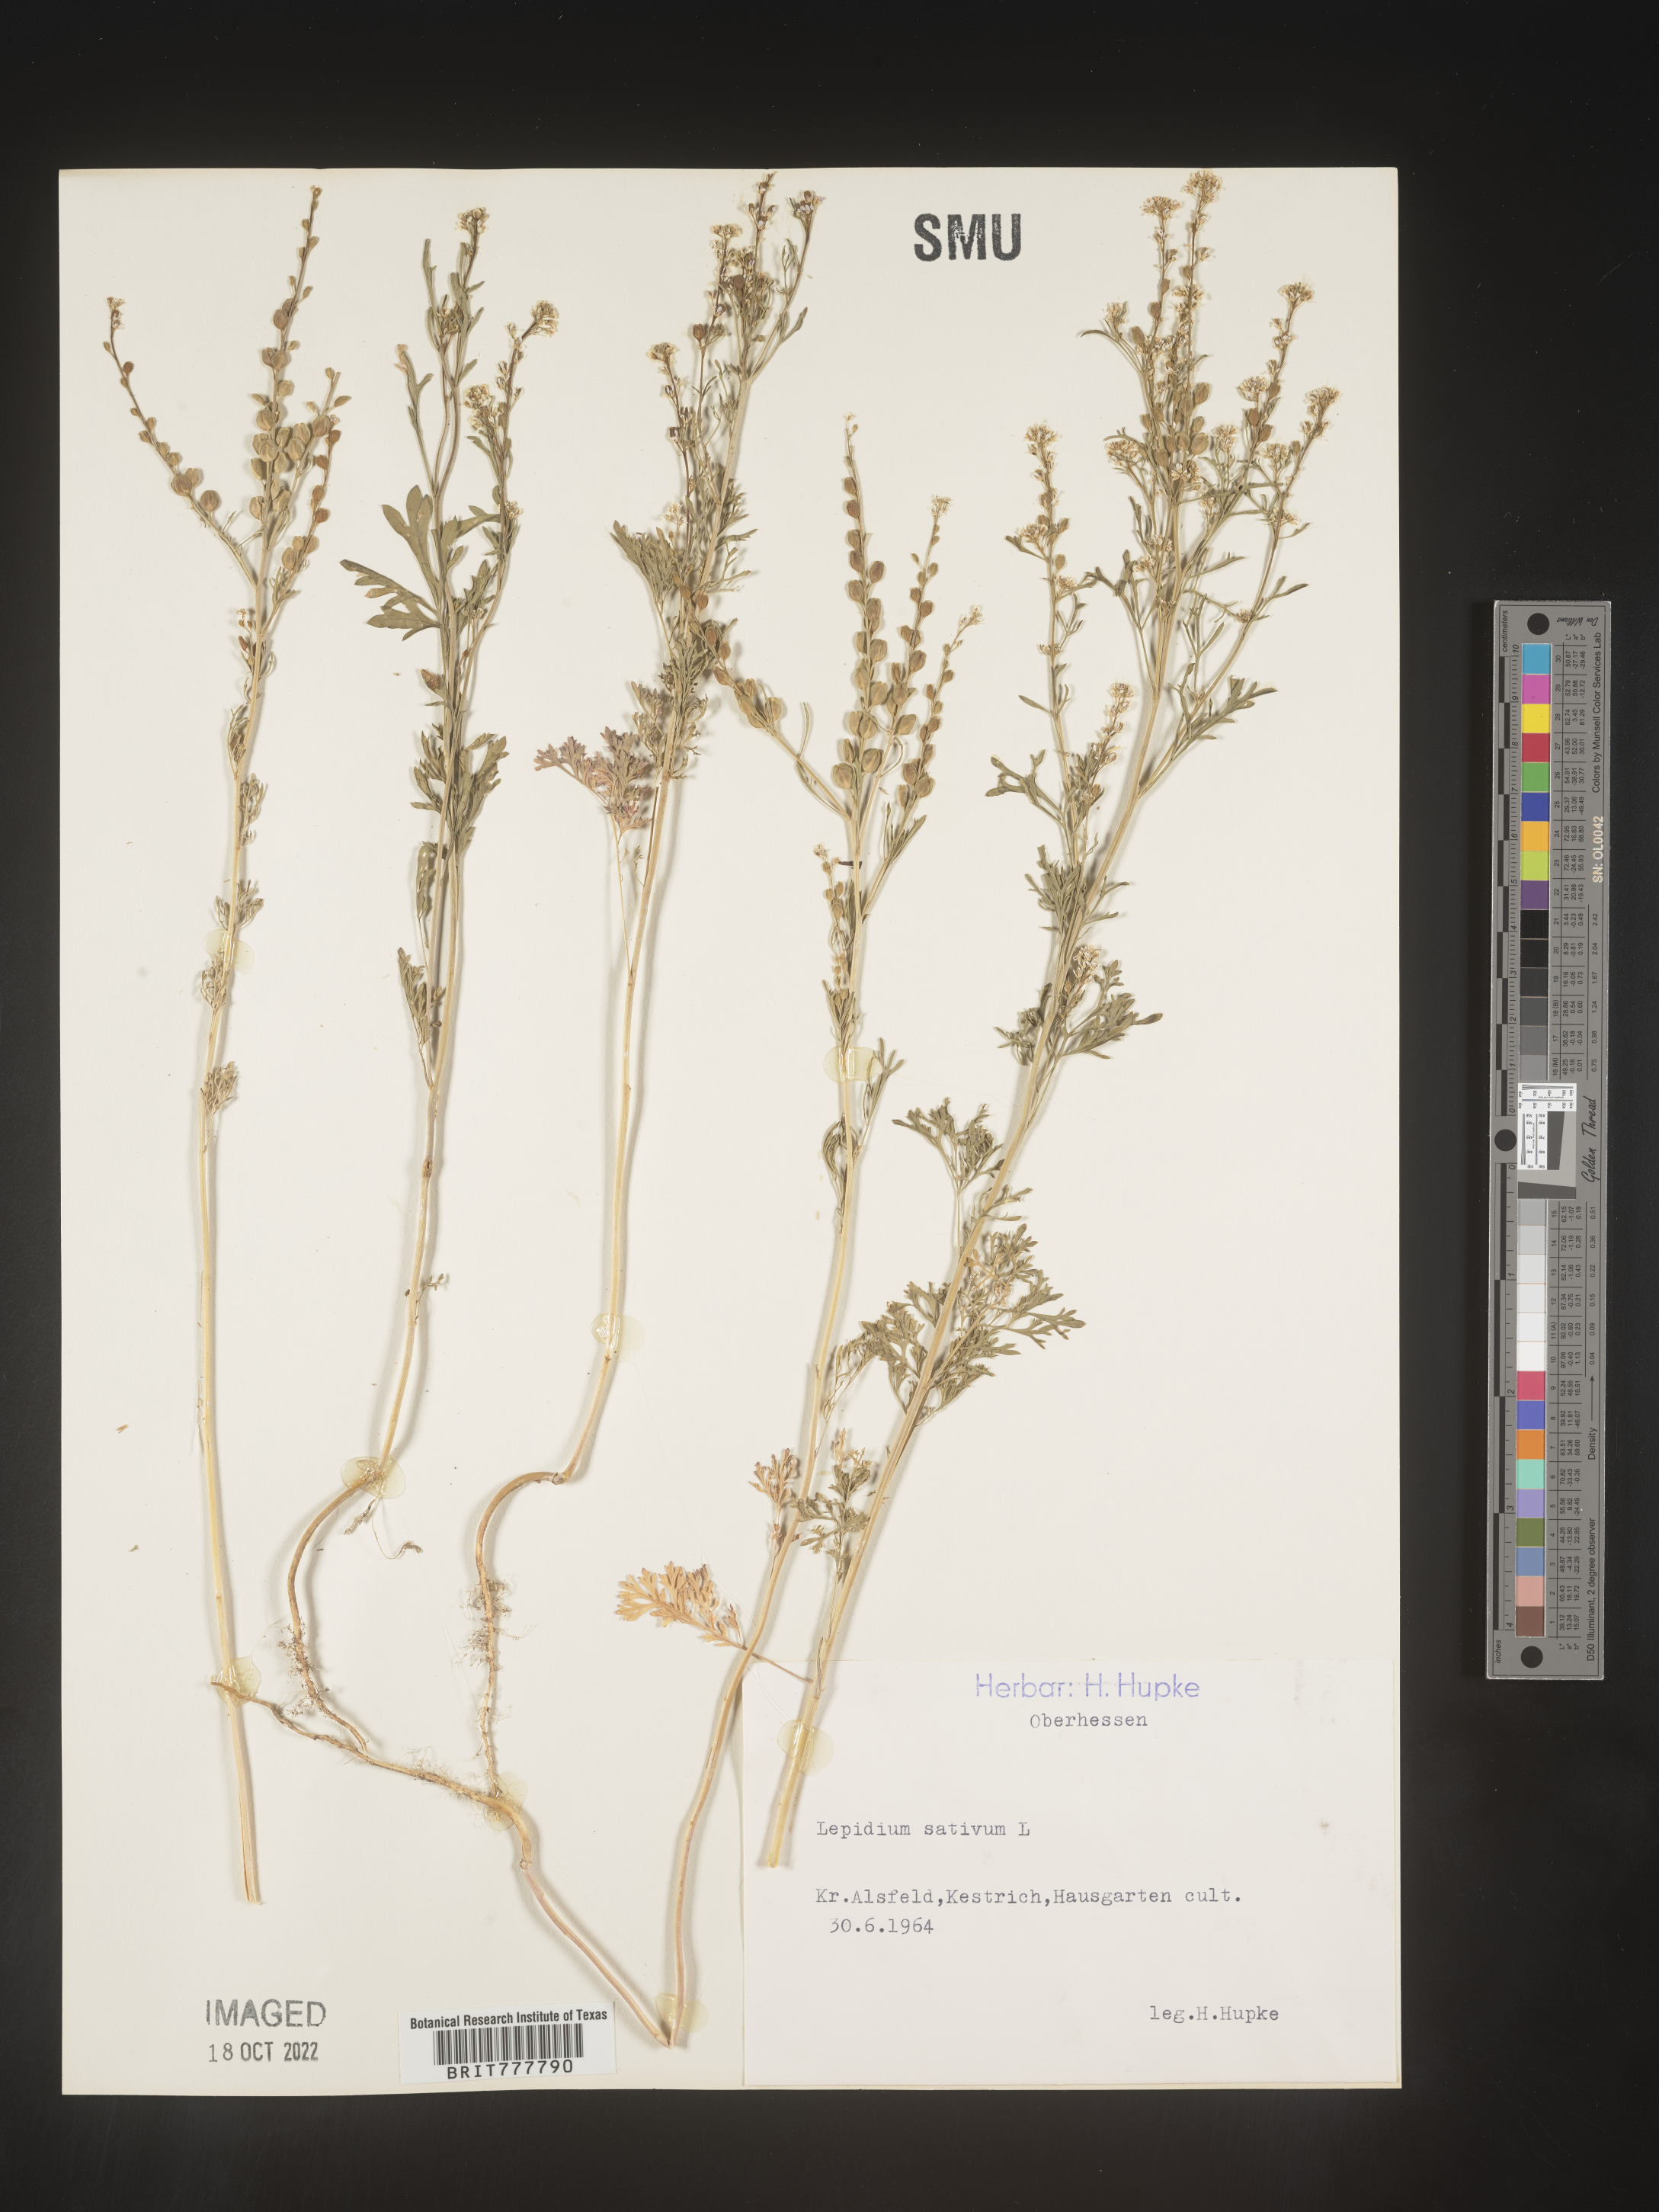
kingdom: Plantae
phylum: Tracheophyta
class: Magnoliopsida
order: Brassicales
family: Brassicaceae
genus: Lepidium
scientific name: Lepidium
